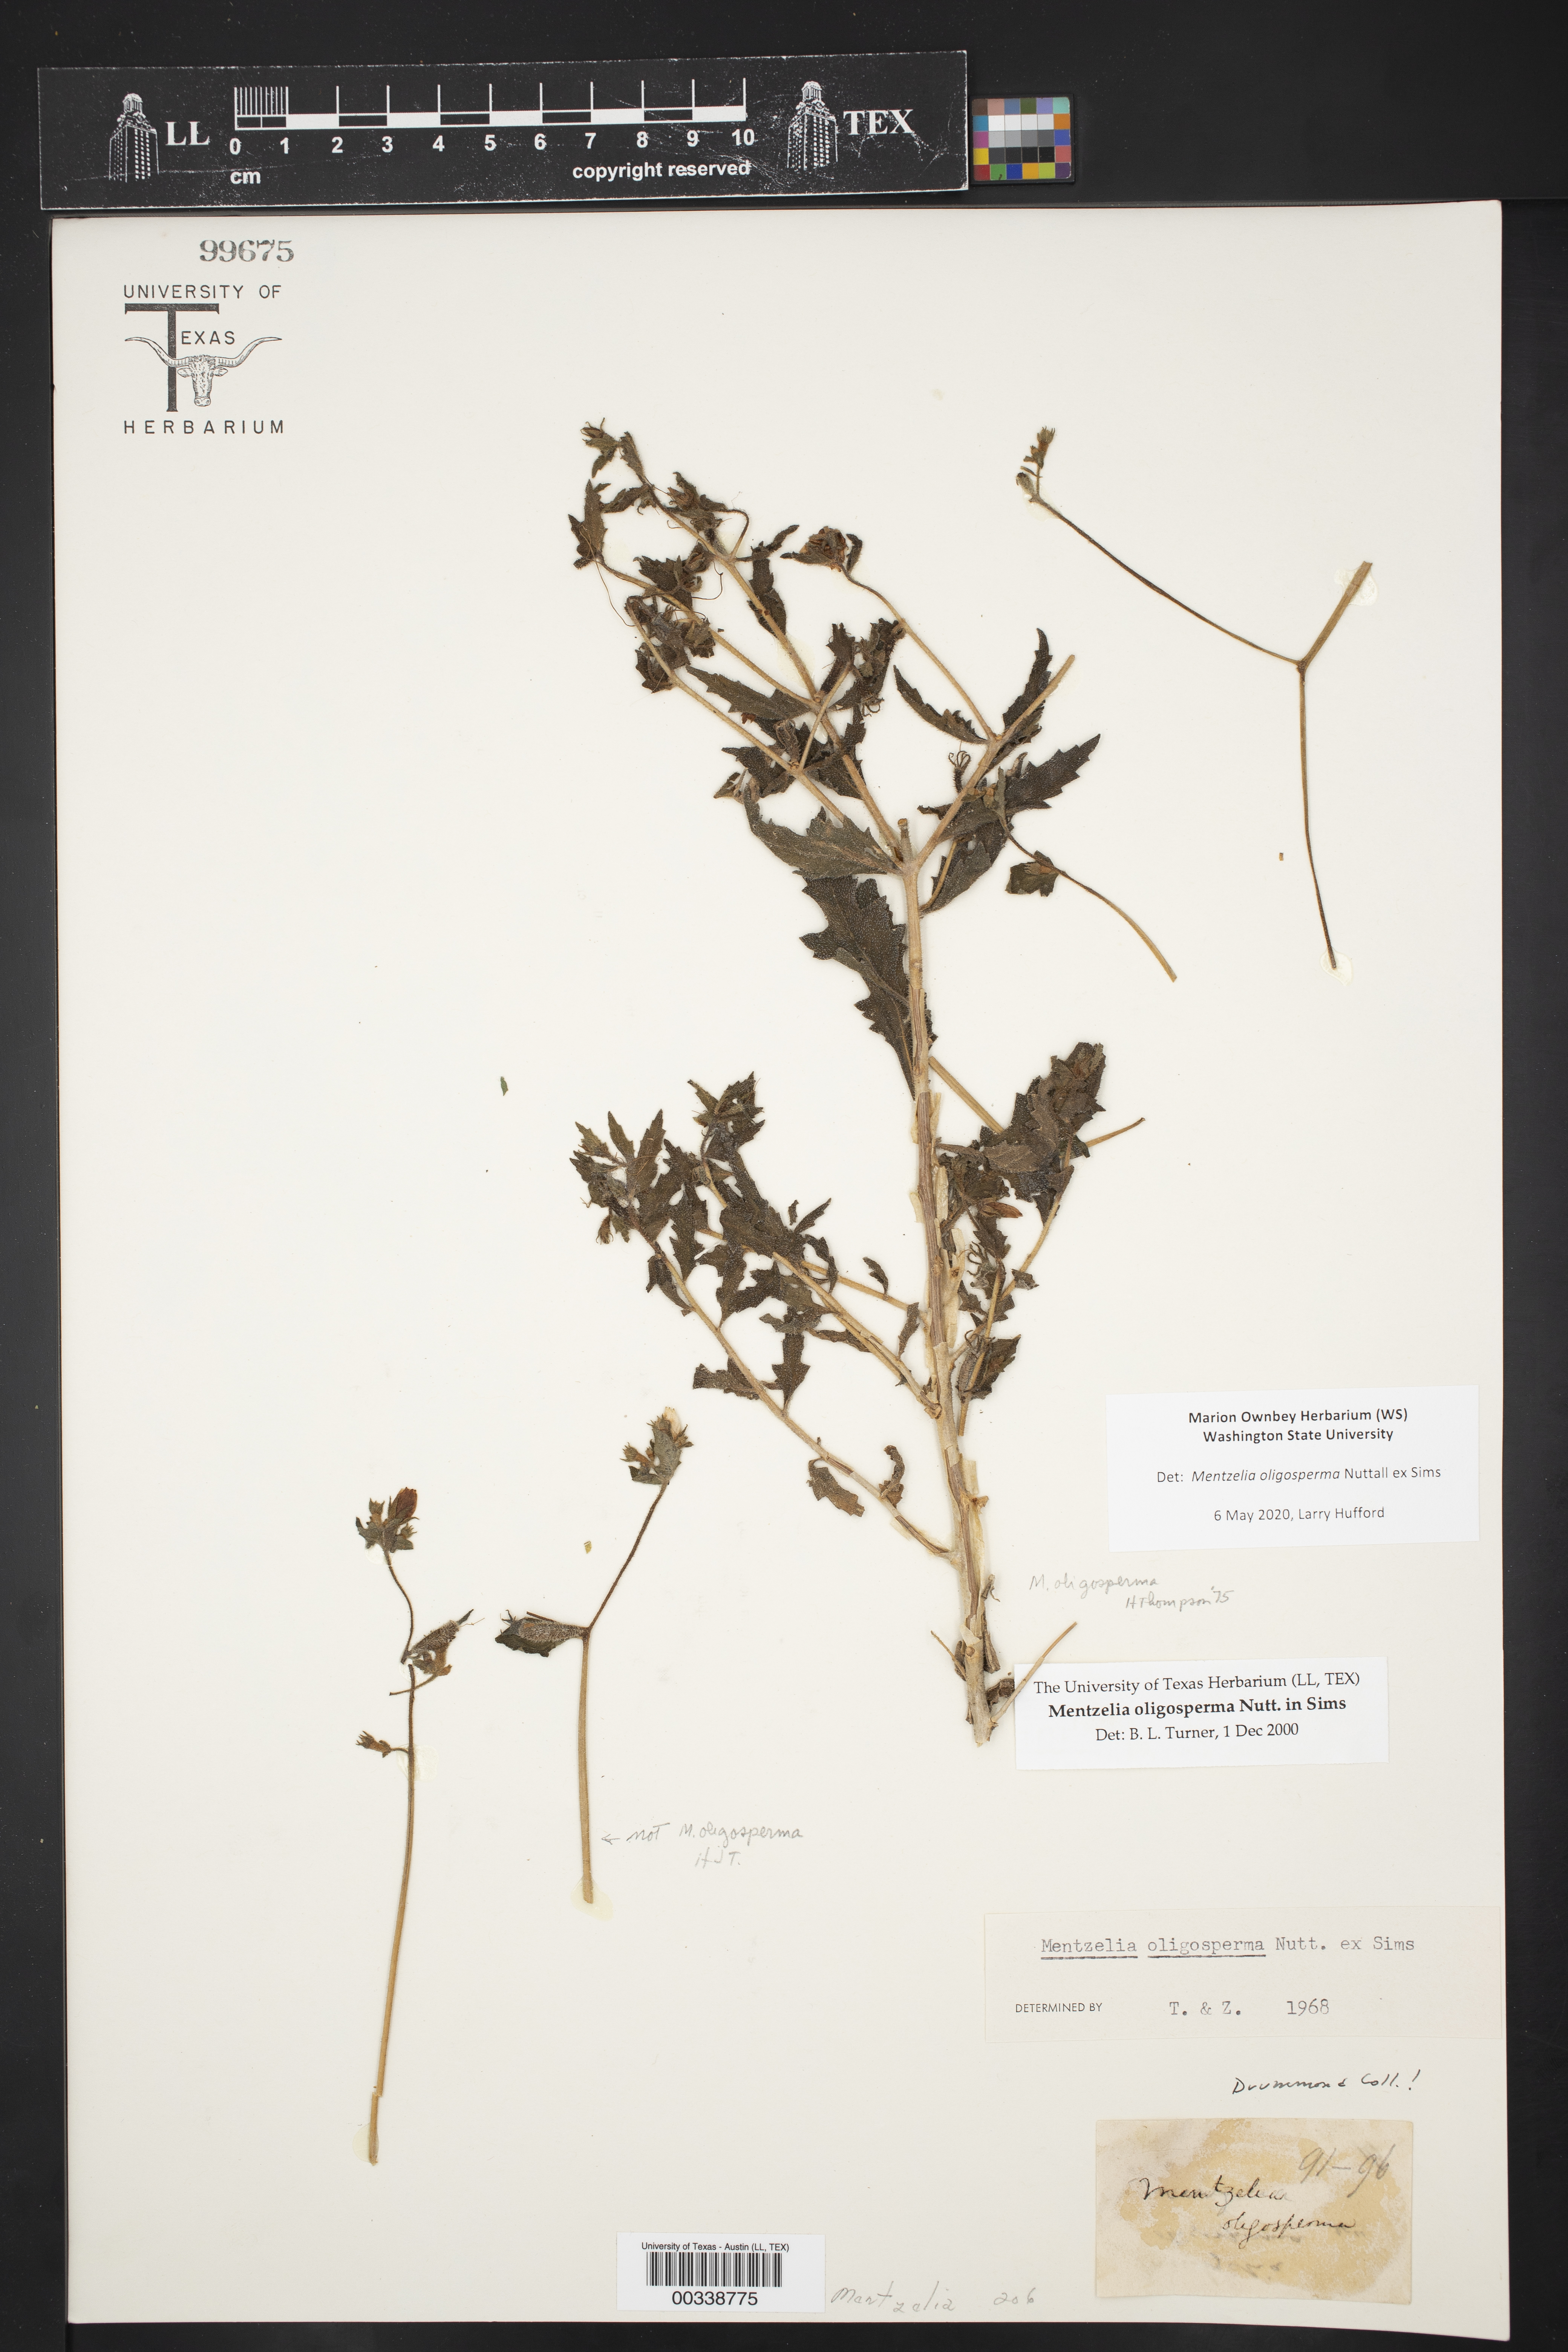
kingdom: Plantae
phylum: Tracheophyta
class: Magnoliopsida
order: Cornales
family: Loasaceae
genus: Mentzelia
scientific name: Mentzelia oligosperma
